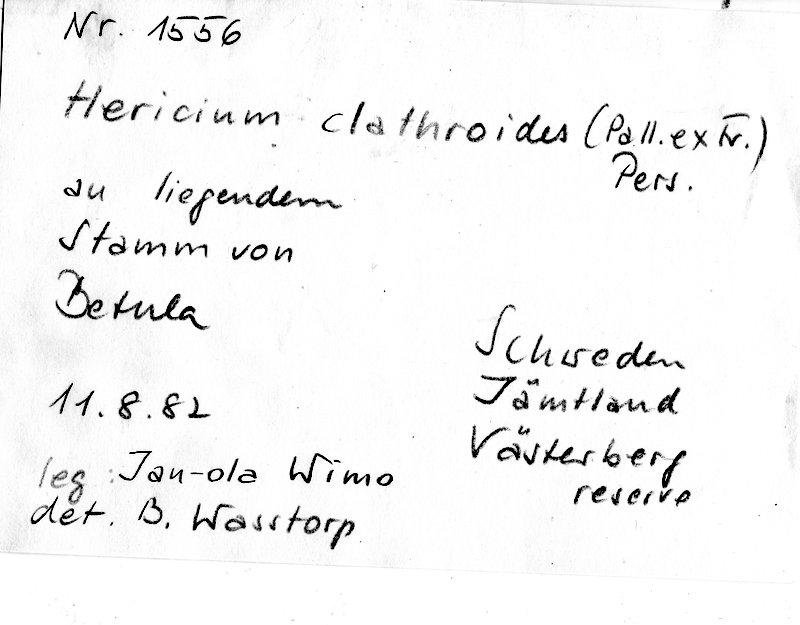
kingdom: Plantae
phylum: Tracheophyta
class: Magnoliopsida
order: Fagales
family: Betulaceae
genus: Betula
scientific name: Betula
